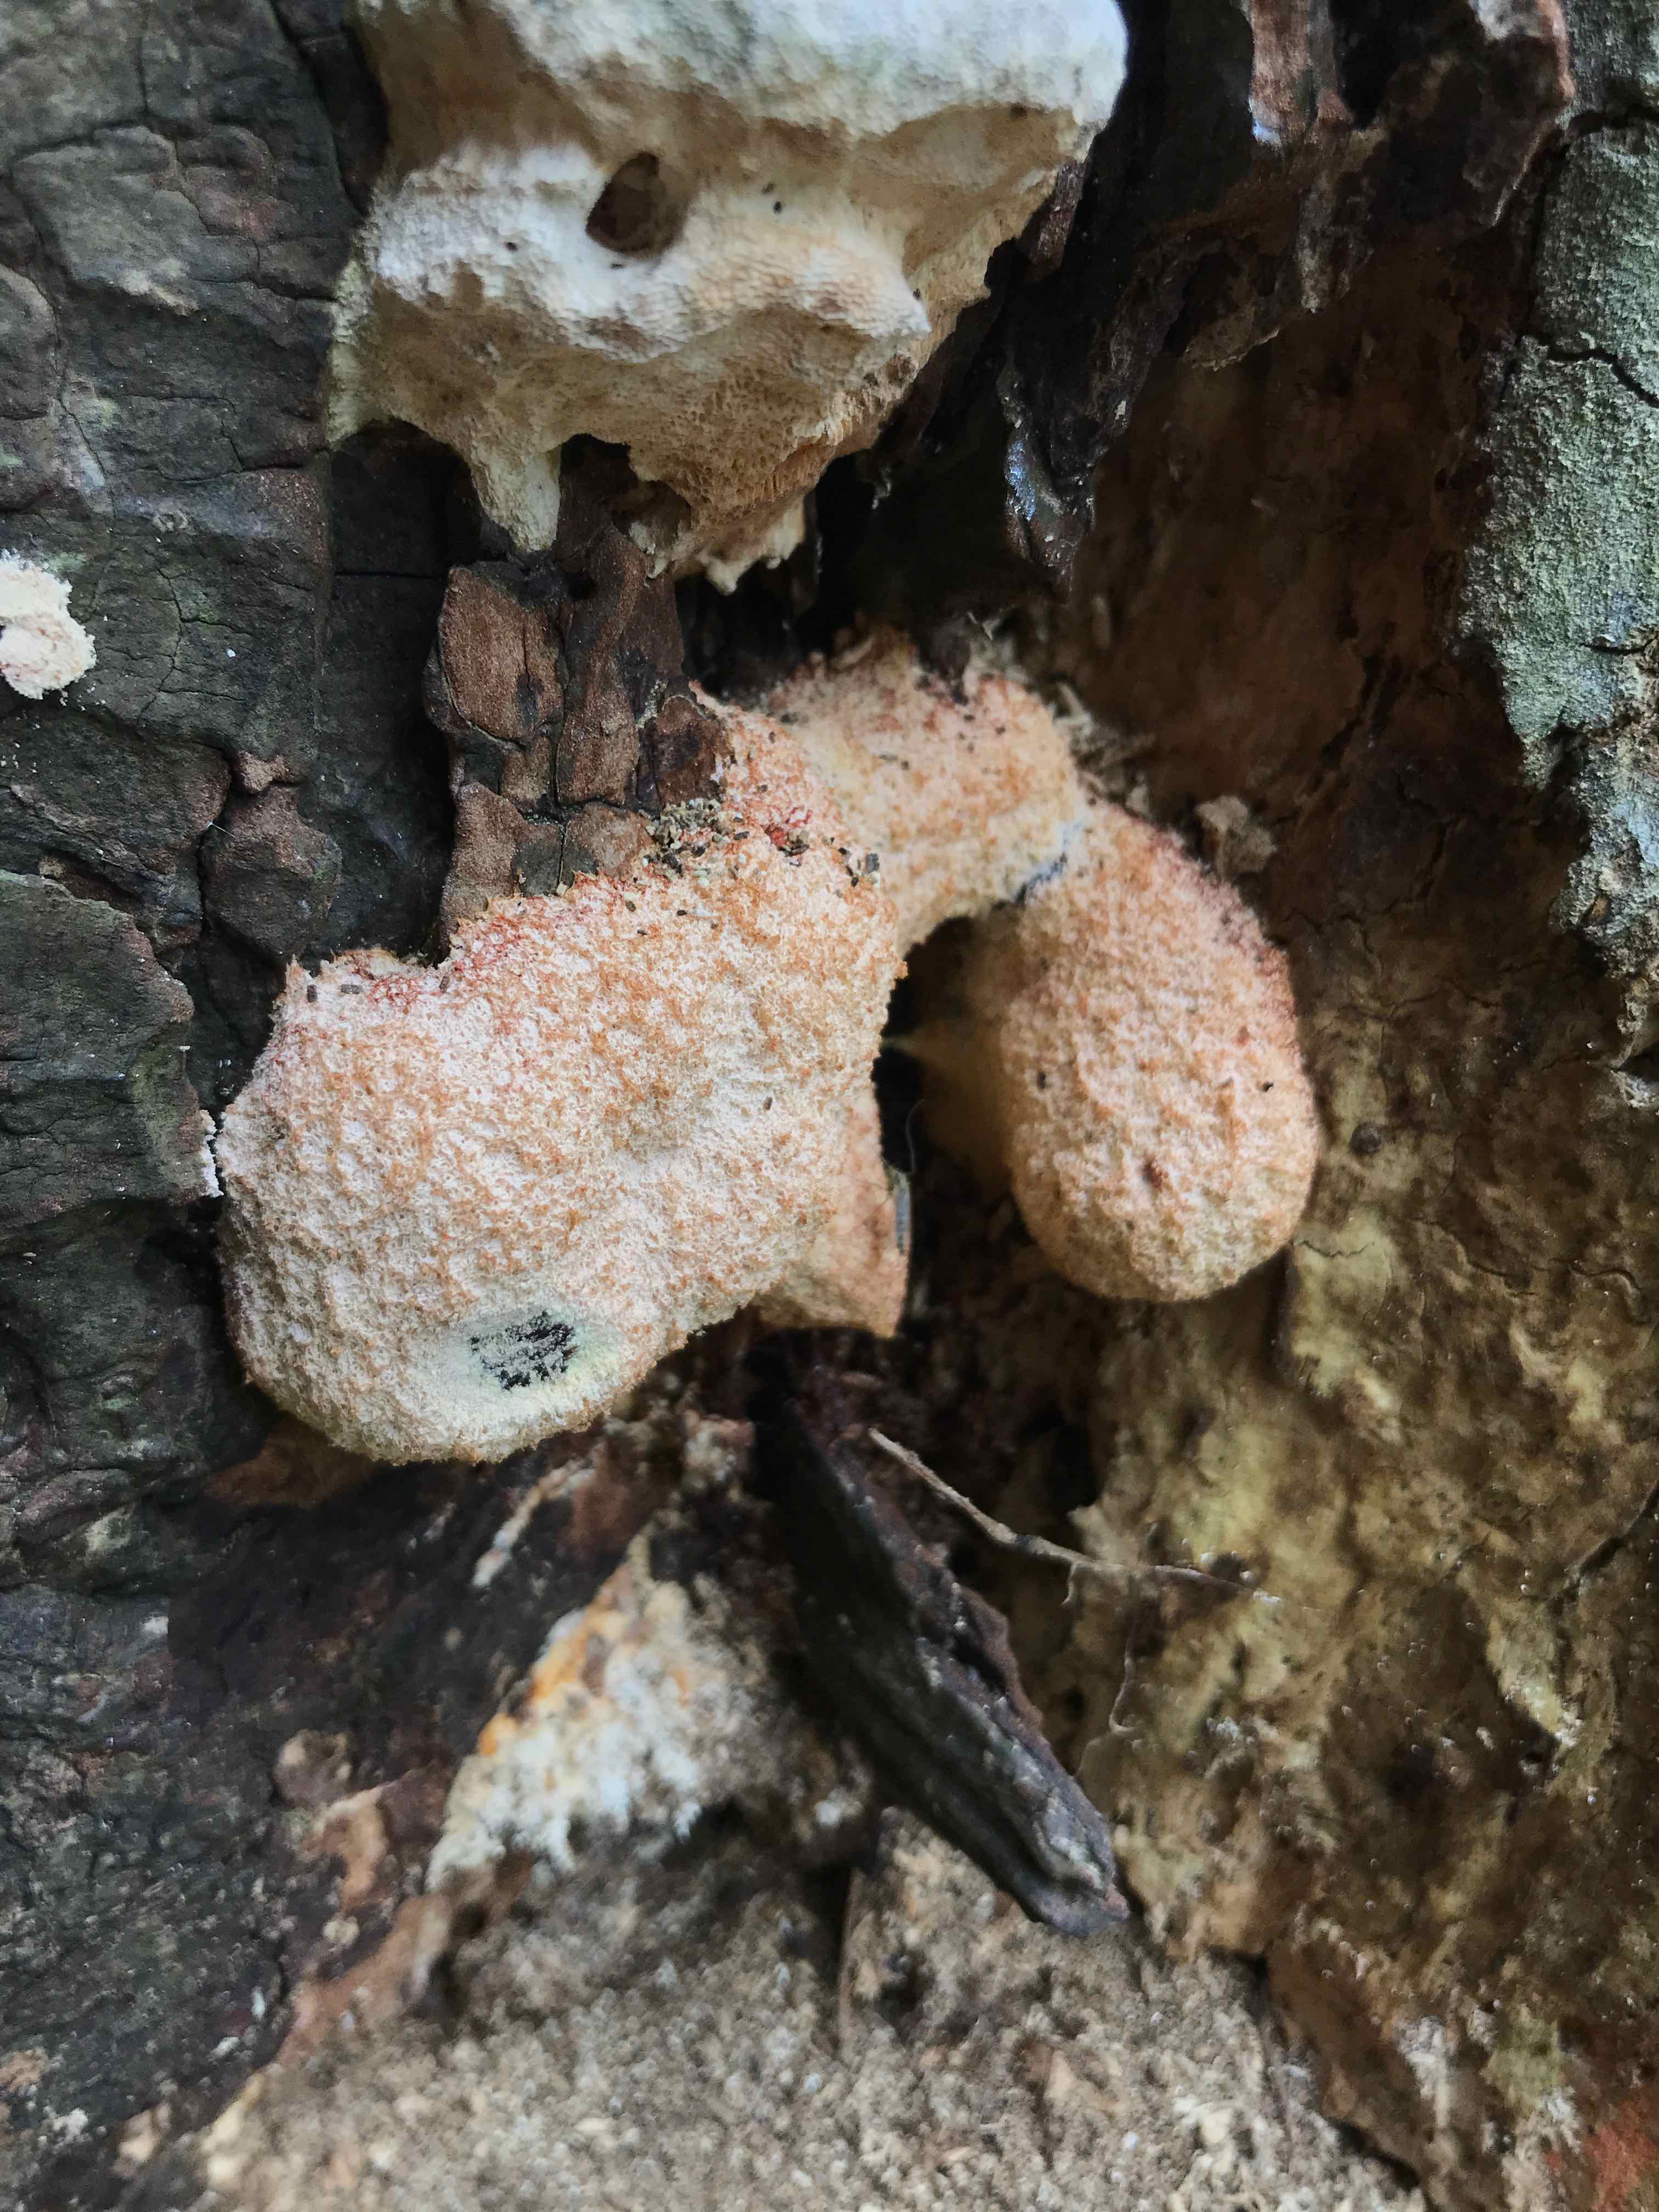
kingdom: Protozoa
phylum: Mycetozoa
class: Myxomycetes
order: Physarales
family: Physaraceae
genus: Fuligo
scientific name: Fuligo septica
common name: Dog vomit slime mold
